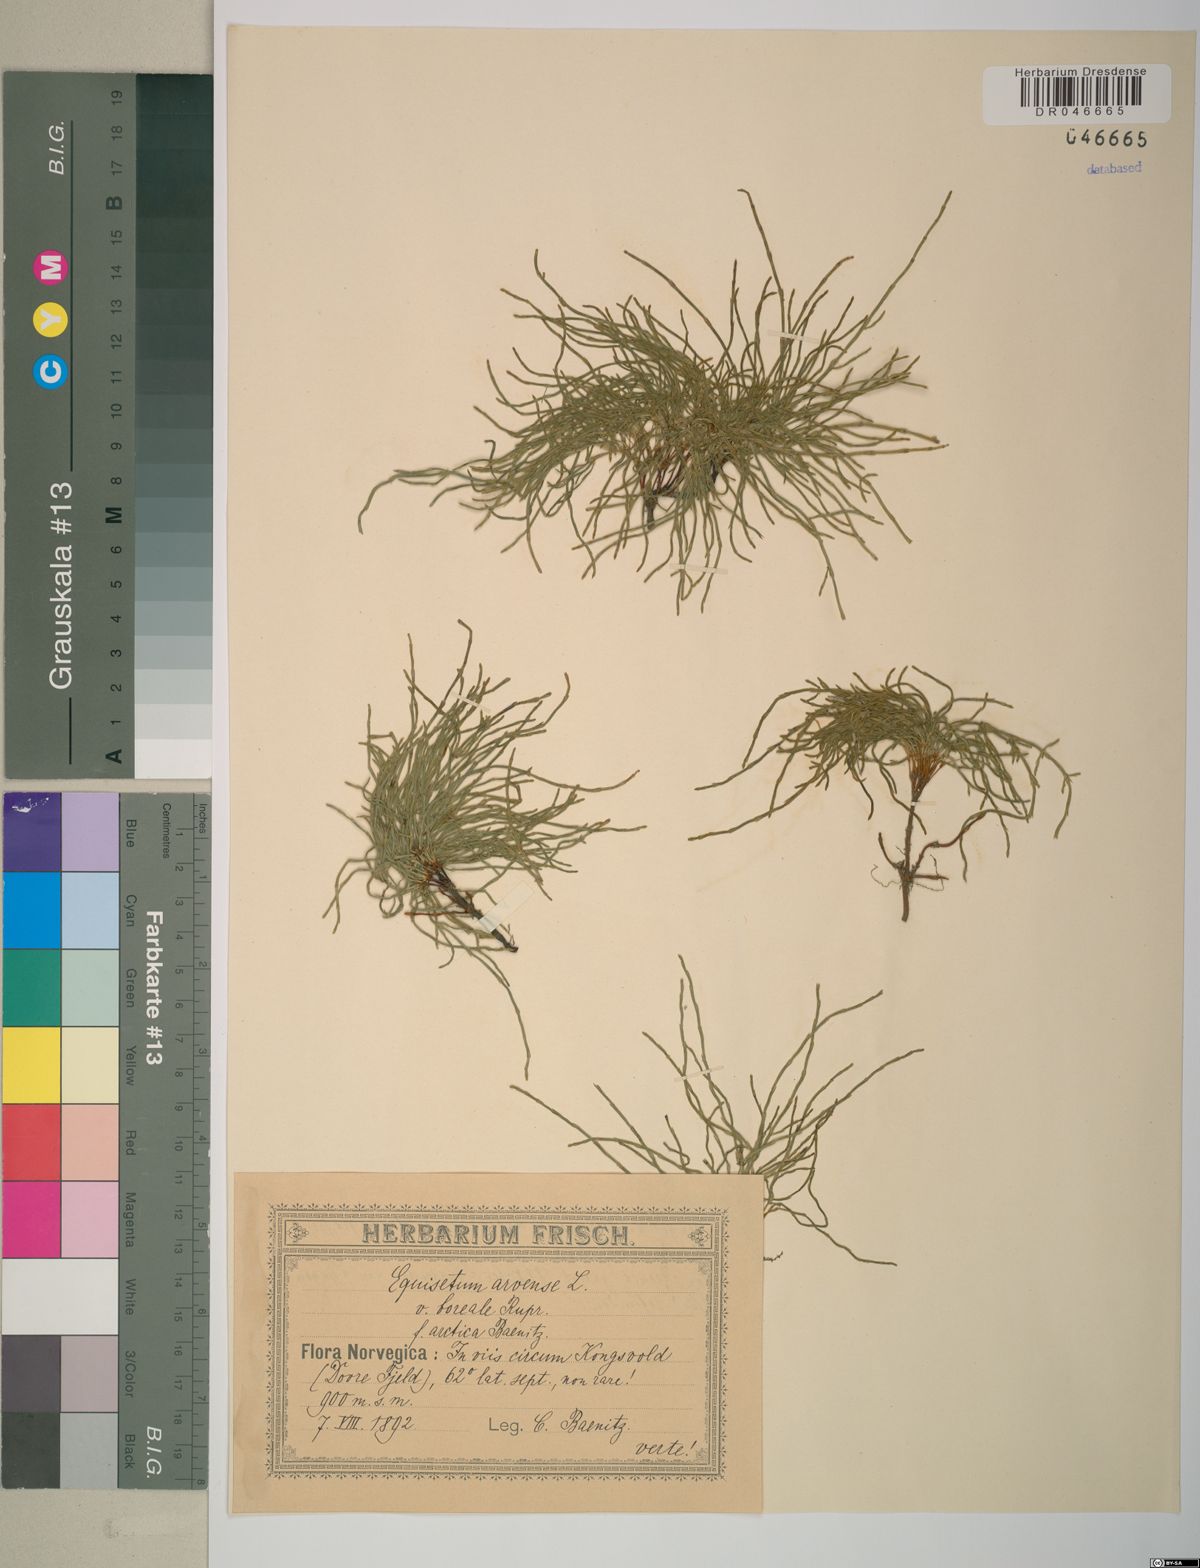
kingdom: Plantae
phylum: Tracheophyta
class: Polypodiopsida
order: Equisetales
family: Equisetaceae
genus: Equisetum
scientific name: Equisetum arvense
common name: Field horsetail
